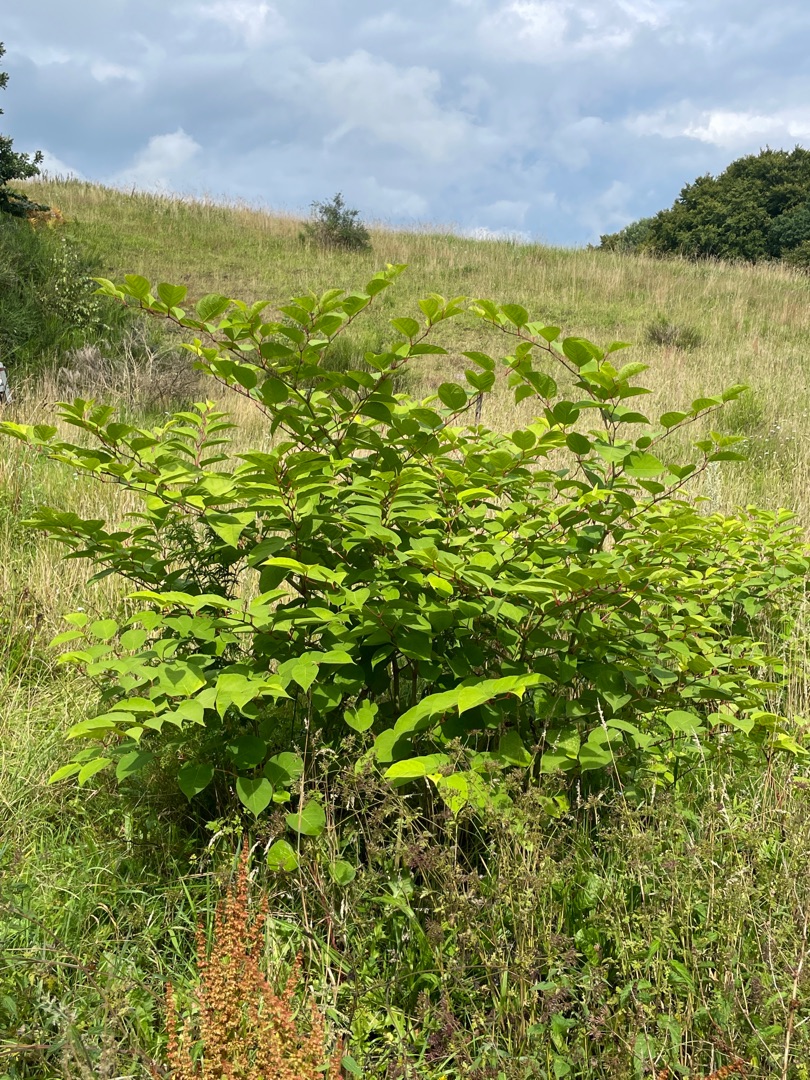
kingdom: Plantae
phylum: Tracheophyta
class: Magnoliopsida
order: Caryophyllales
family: Polygonaceae
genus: Reynoutria
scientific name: Reynoutria japonica
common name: Japan-pileurt
